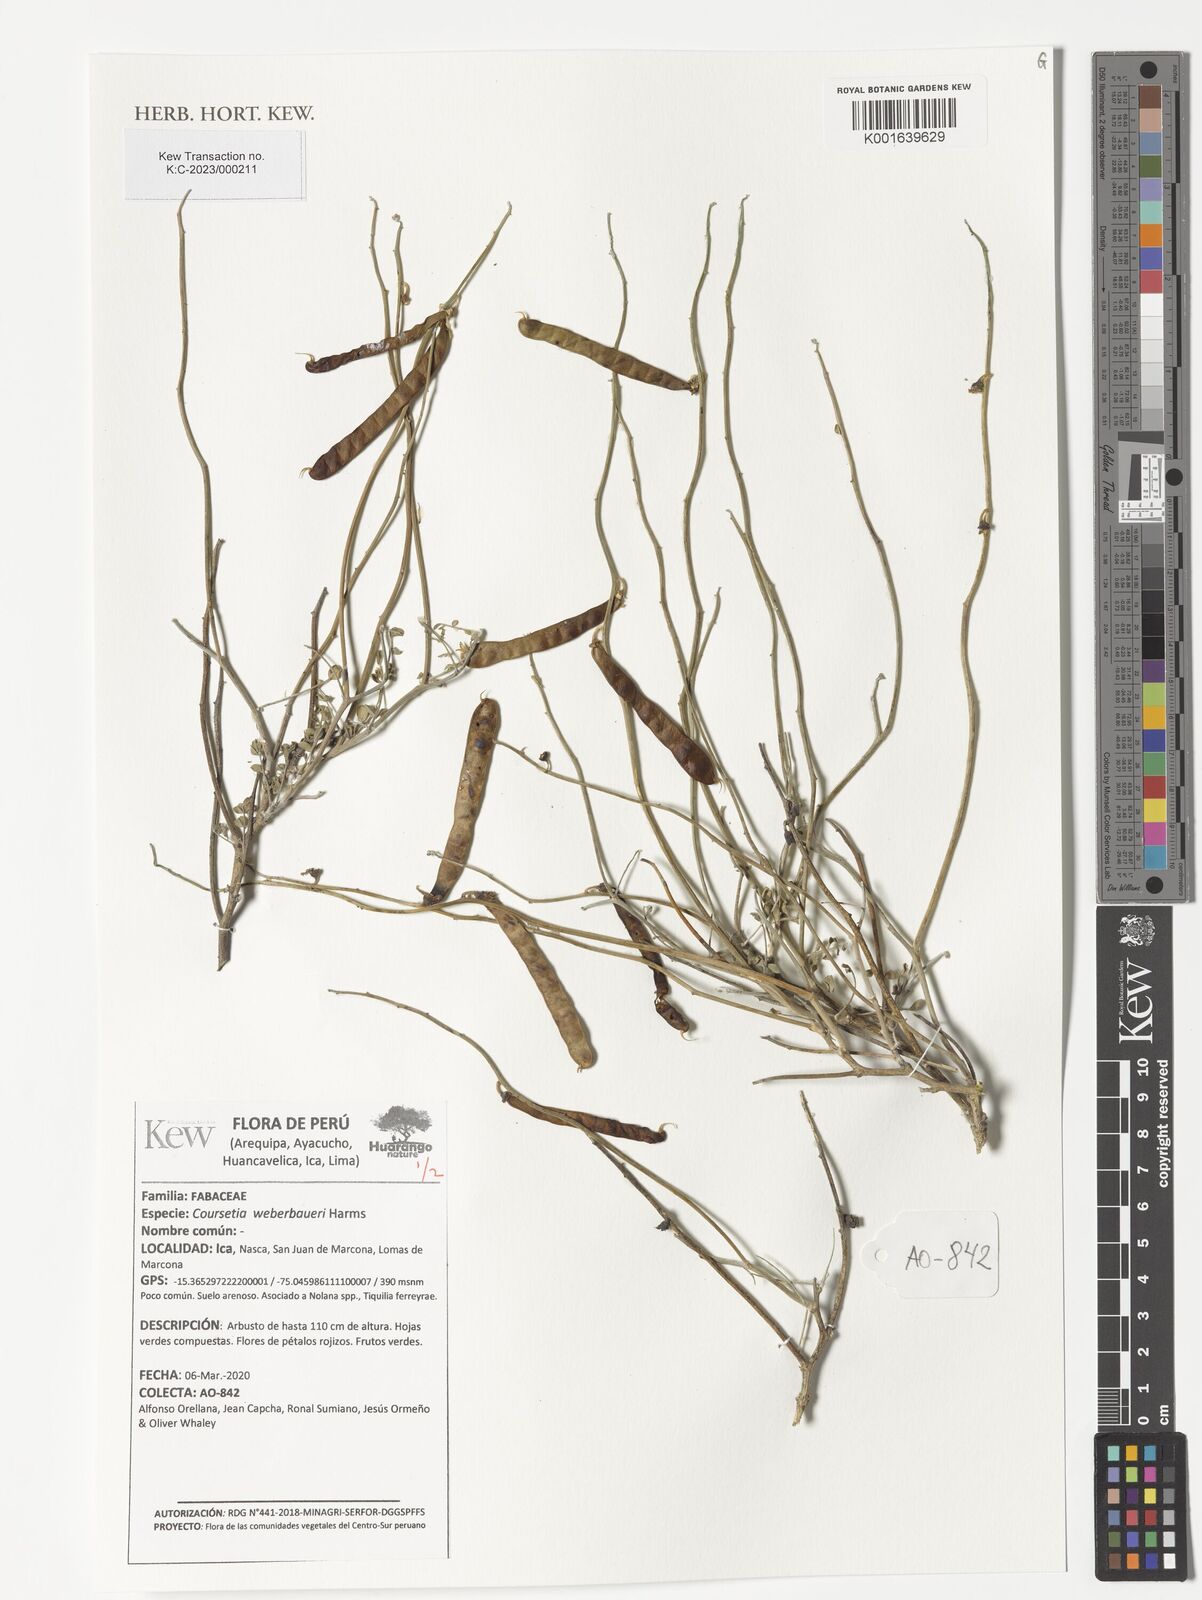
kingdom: Plantae
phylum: Tracheophyta
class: Magnoliopsida
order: Fabales
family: Fabaceae
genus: Poissonia
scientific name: Poissonia weberbaueri
